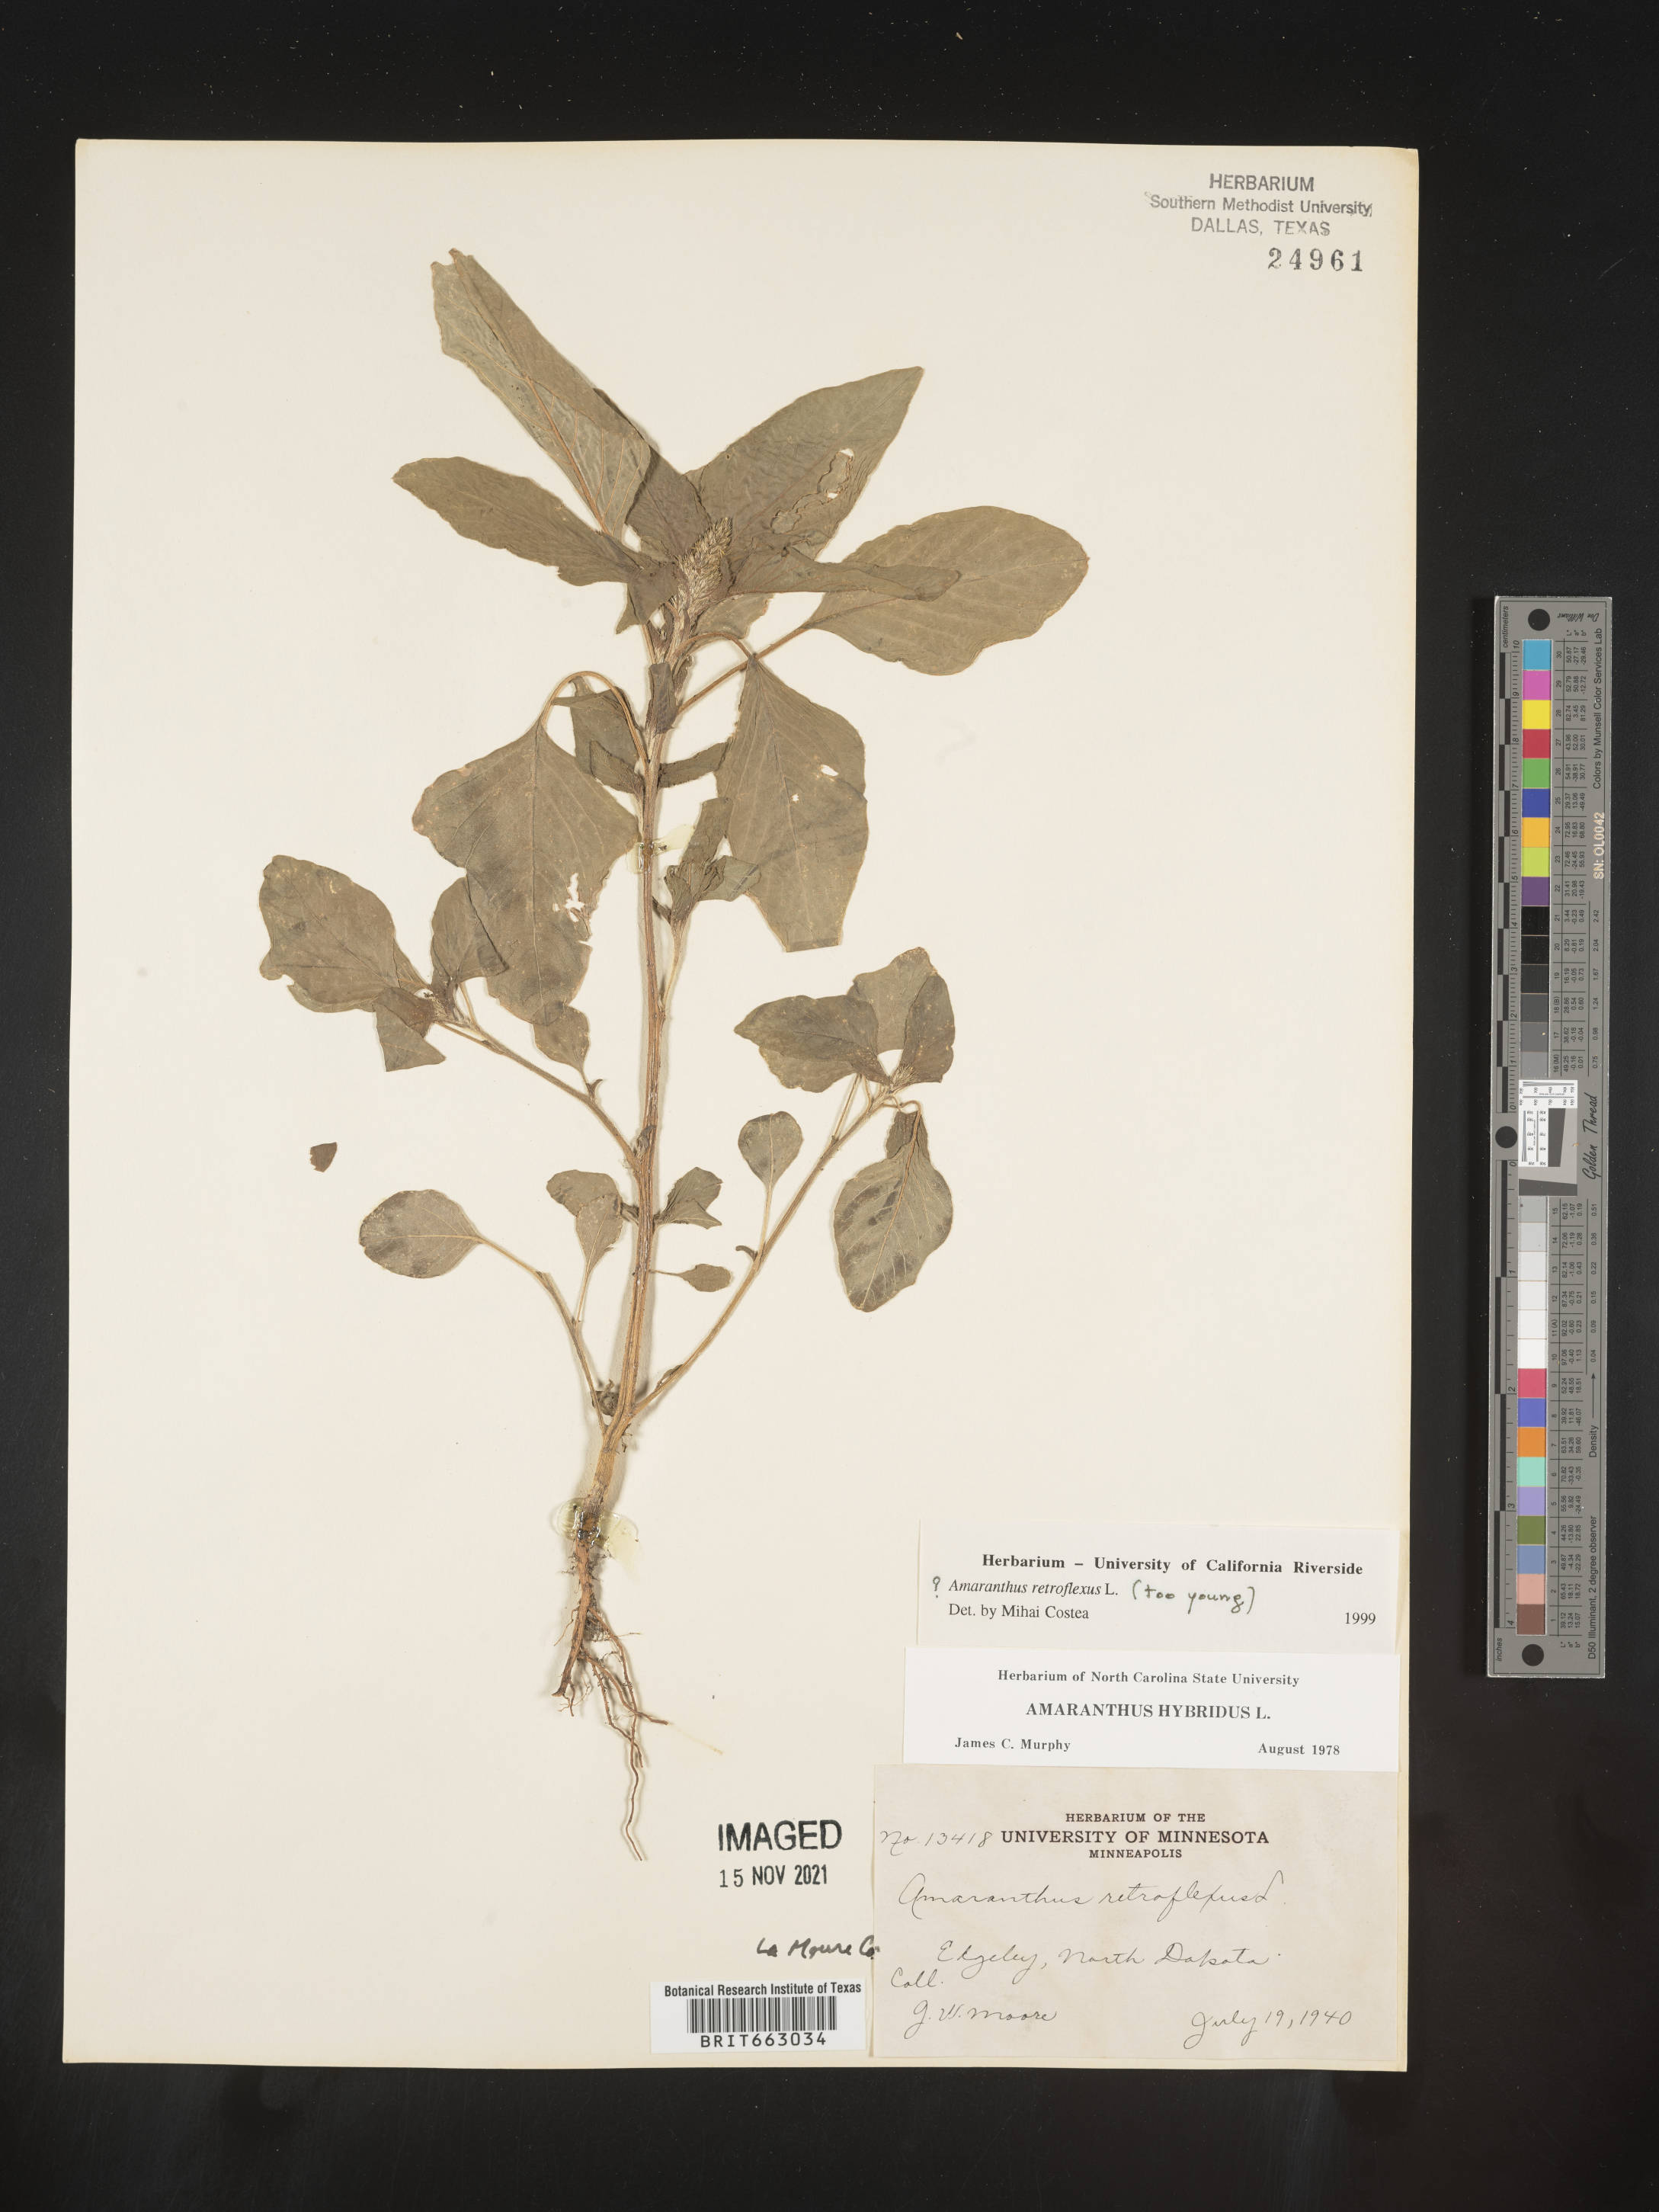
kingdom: Plantae
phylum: Tracheophyta
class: Magnoliopsida
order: Caryophyllales
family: Amaranthaceae
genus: Amaranthus
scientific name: Amaranthus retroflexus
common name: Redroot amaranth
